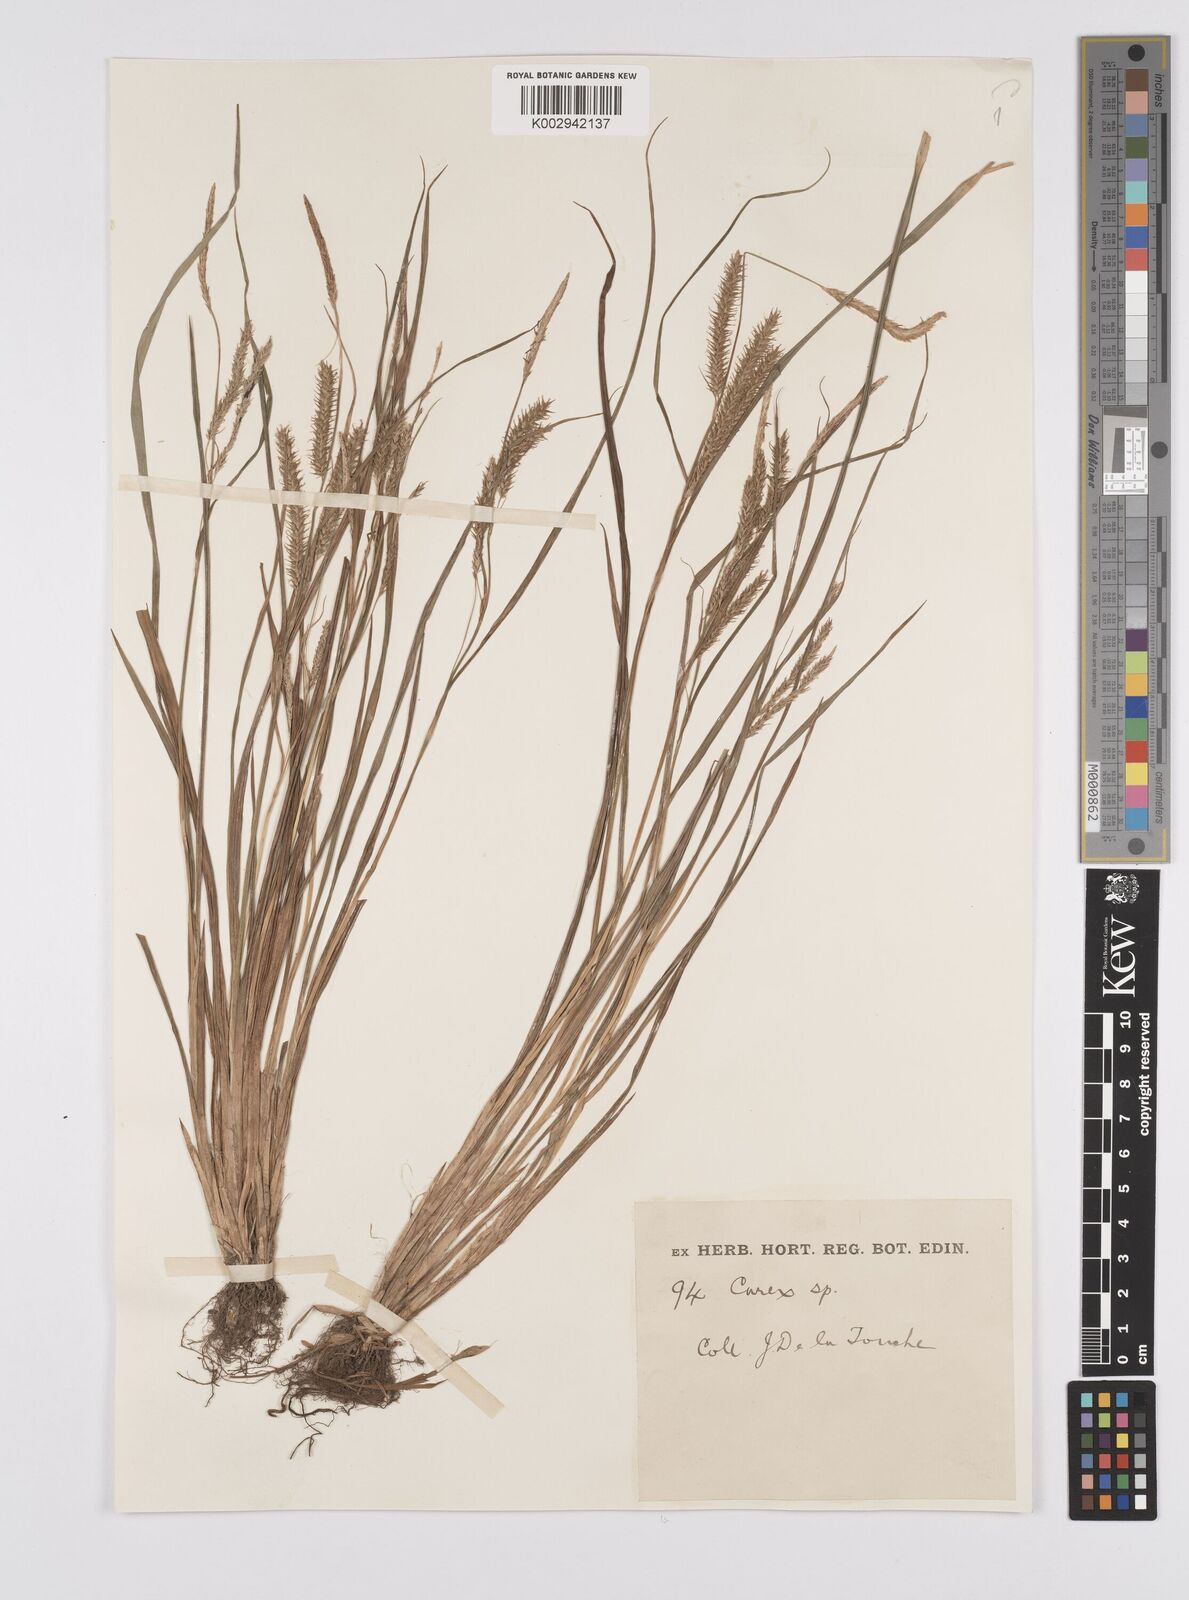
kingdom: Plantae
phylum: Tracheophyta
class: Liliopsida
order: Poales
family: Cyperaceae
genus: Carex
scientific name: Carex japonica
